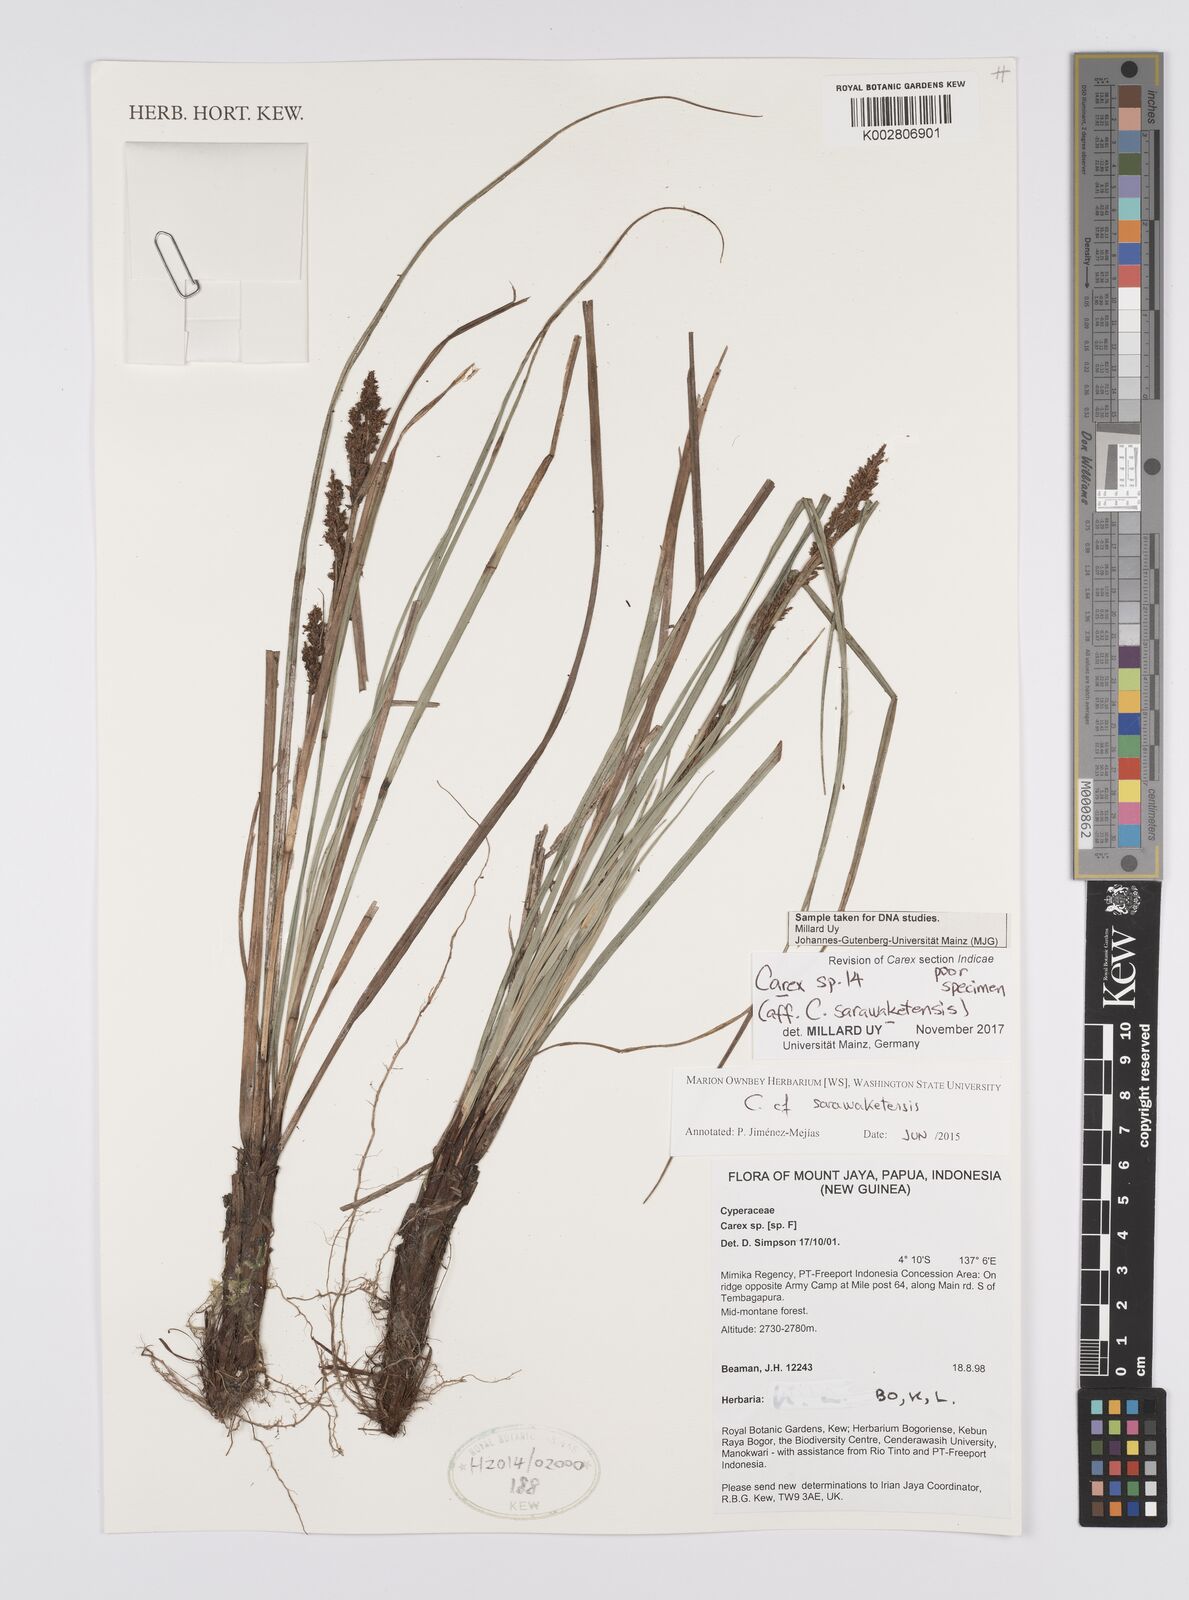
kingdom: Plantae
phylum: Tracheophyta
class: Liliopsida
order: Poales
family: Cyperaceae
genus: Carex
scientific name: Carex sarawaketensis
